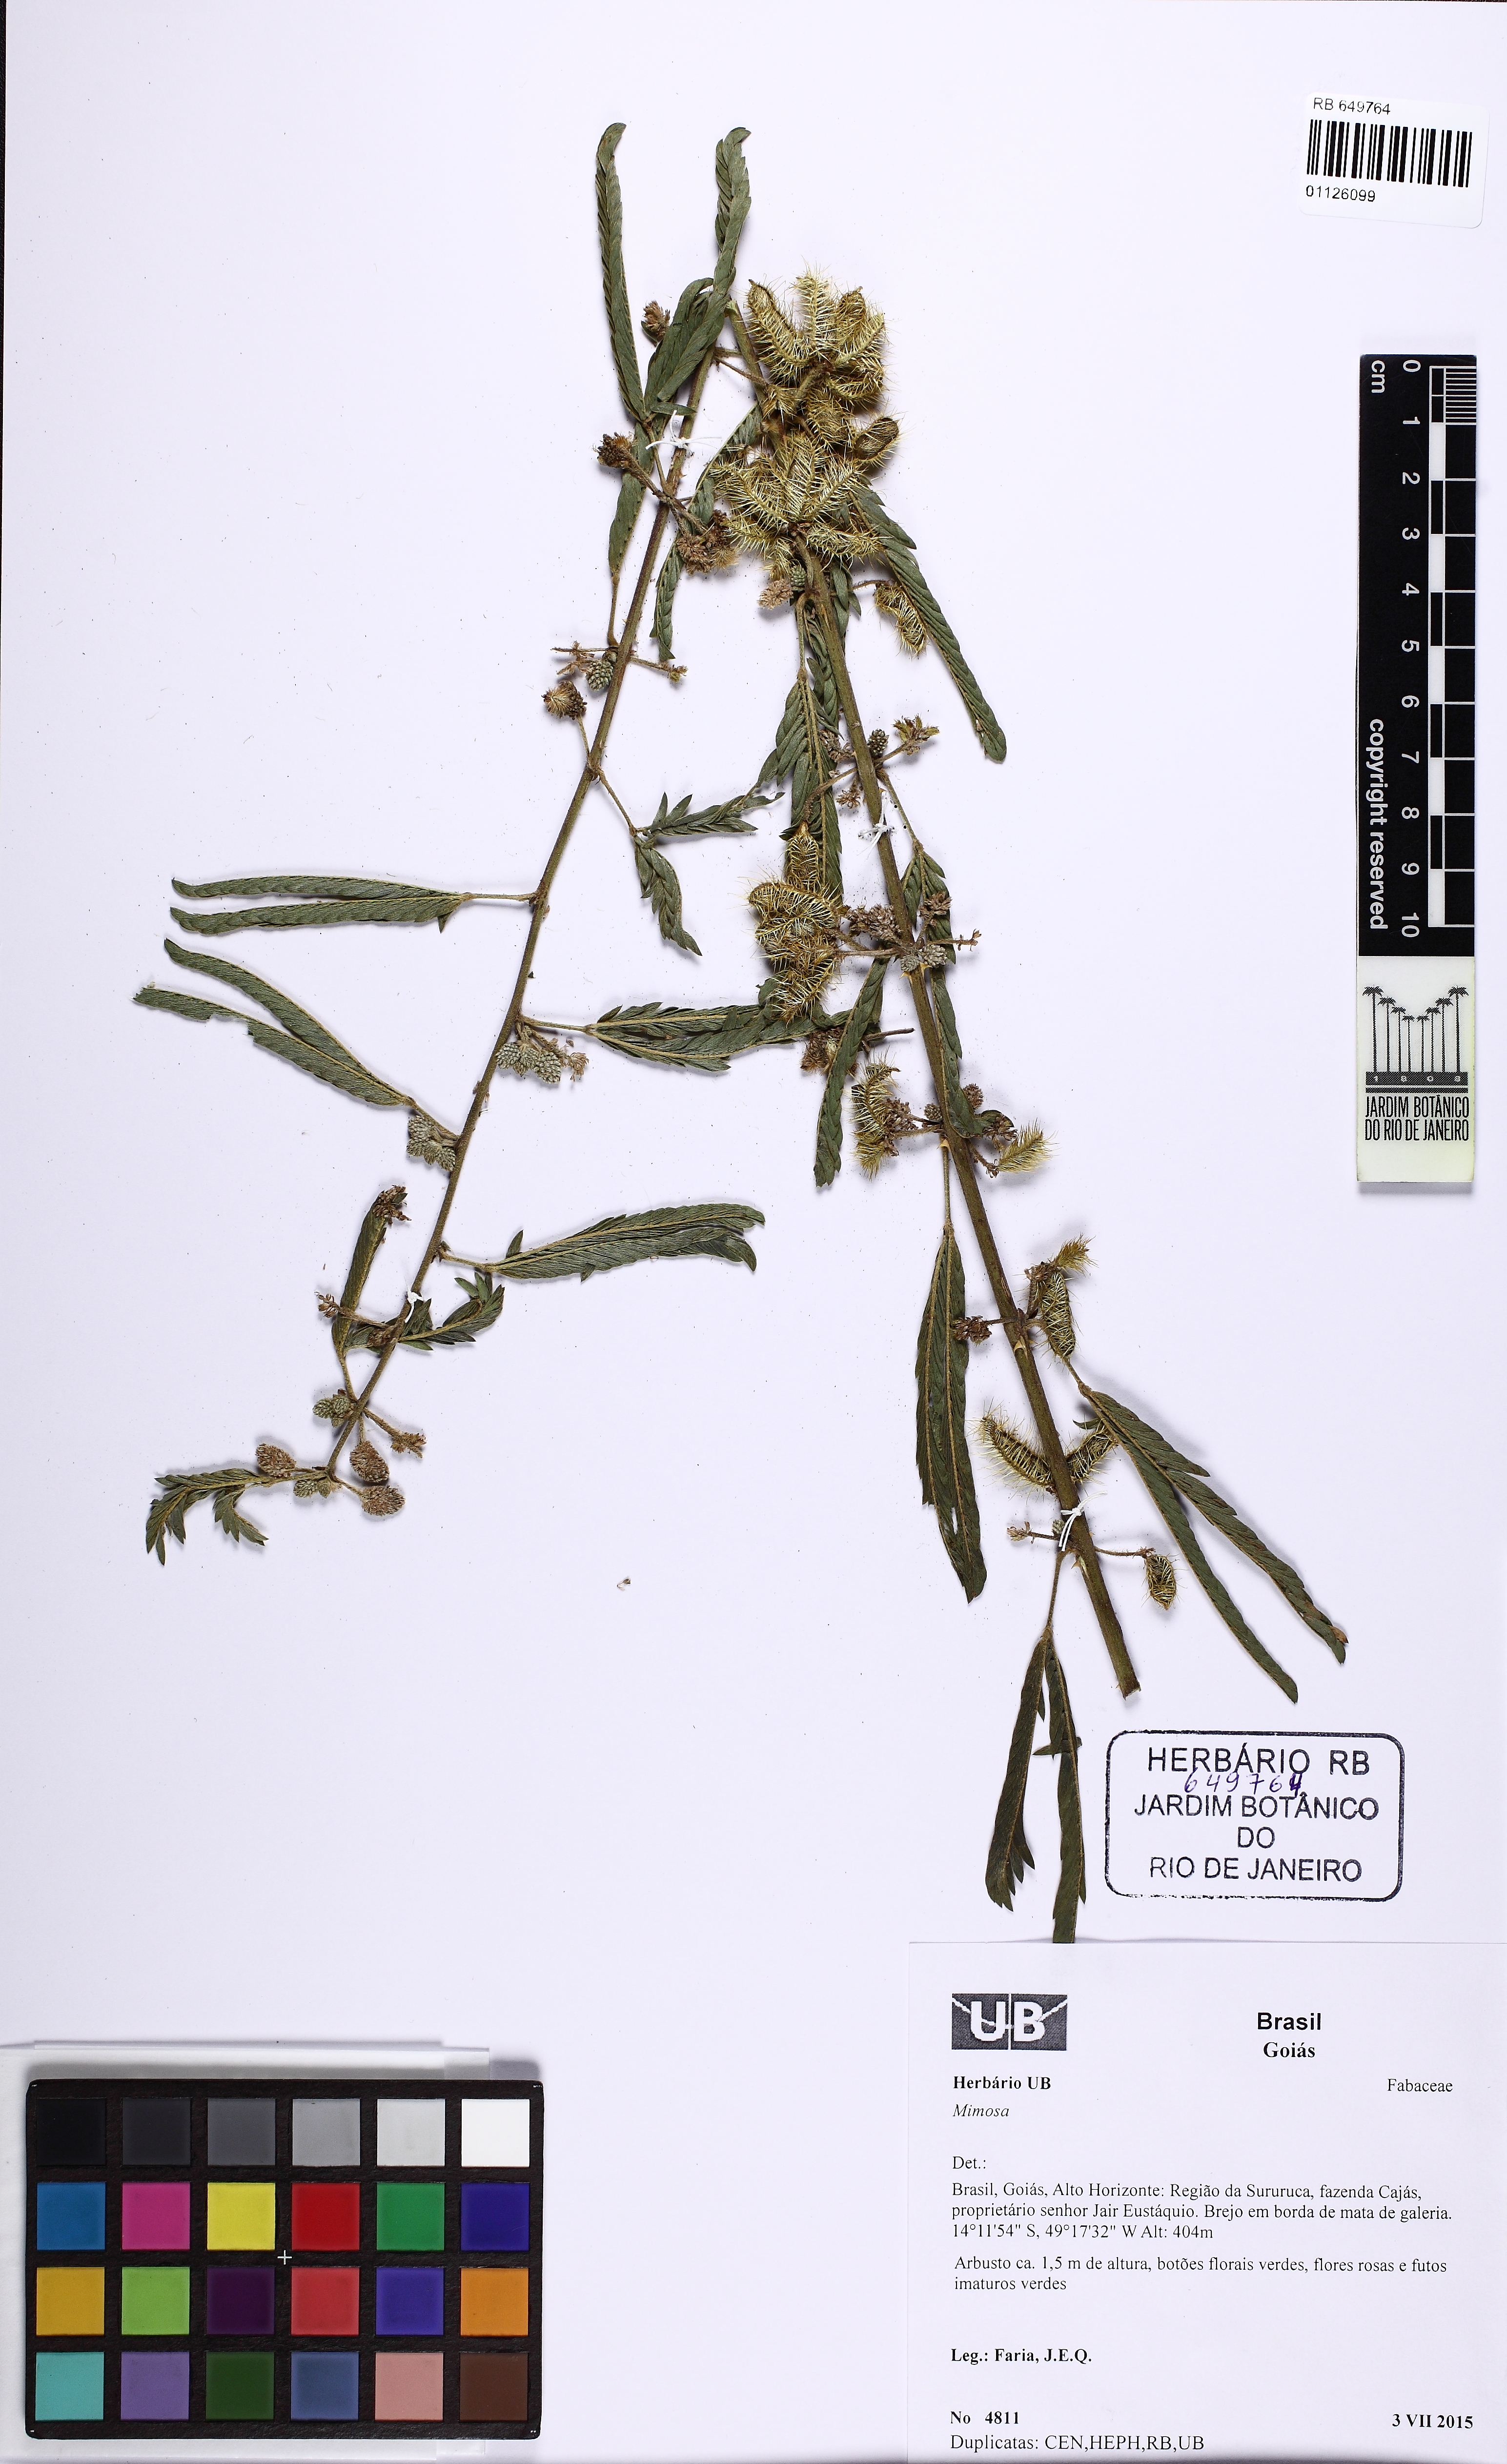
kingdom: Plantae
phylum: Tracheophyta
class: Magnoliopsida
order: Fabales
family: Fabaceae
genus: Mimosa
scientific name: Mimosa
